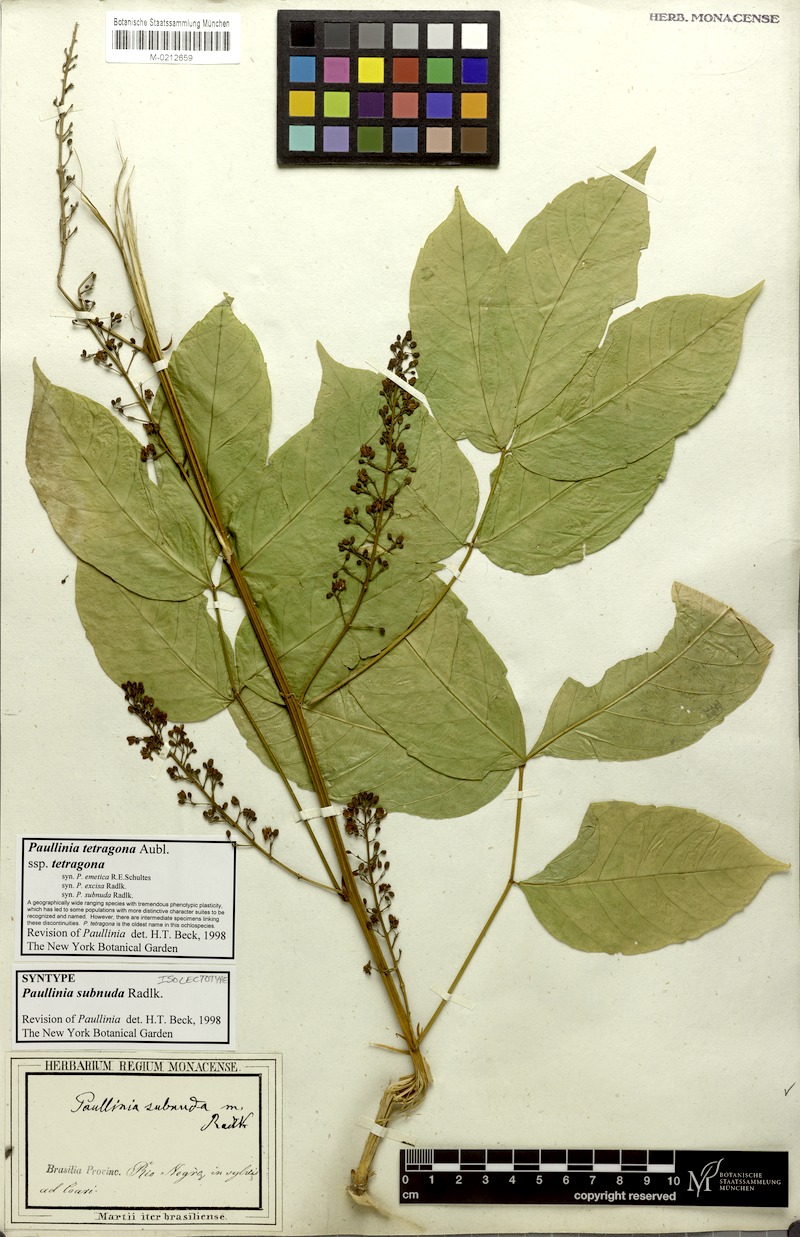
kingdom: Plantae
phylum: Tracheophyta
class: Magnoliopsida
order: Sapindales
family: Sapindaceae
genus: Paullinia
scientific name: Paullinia tetragona
